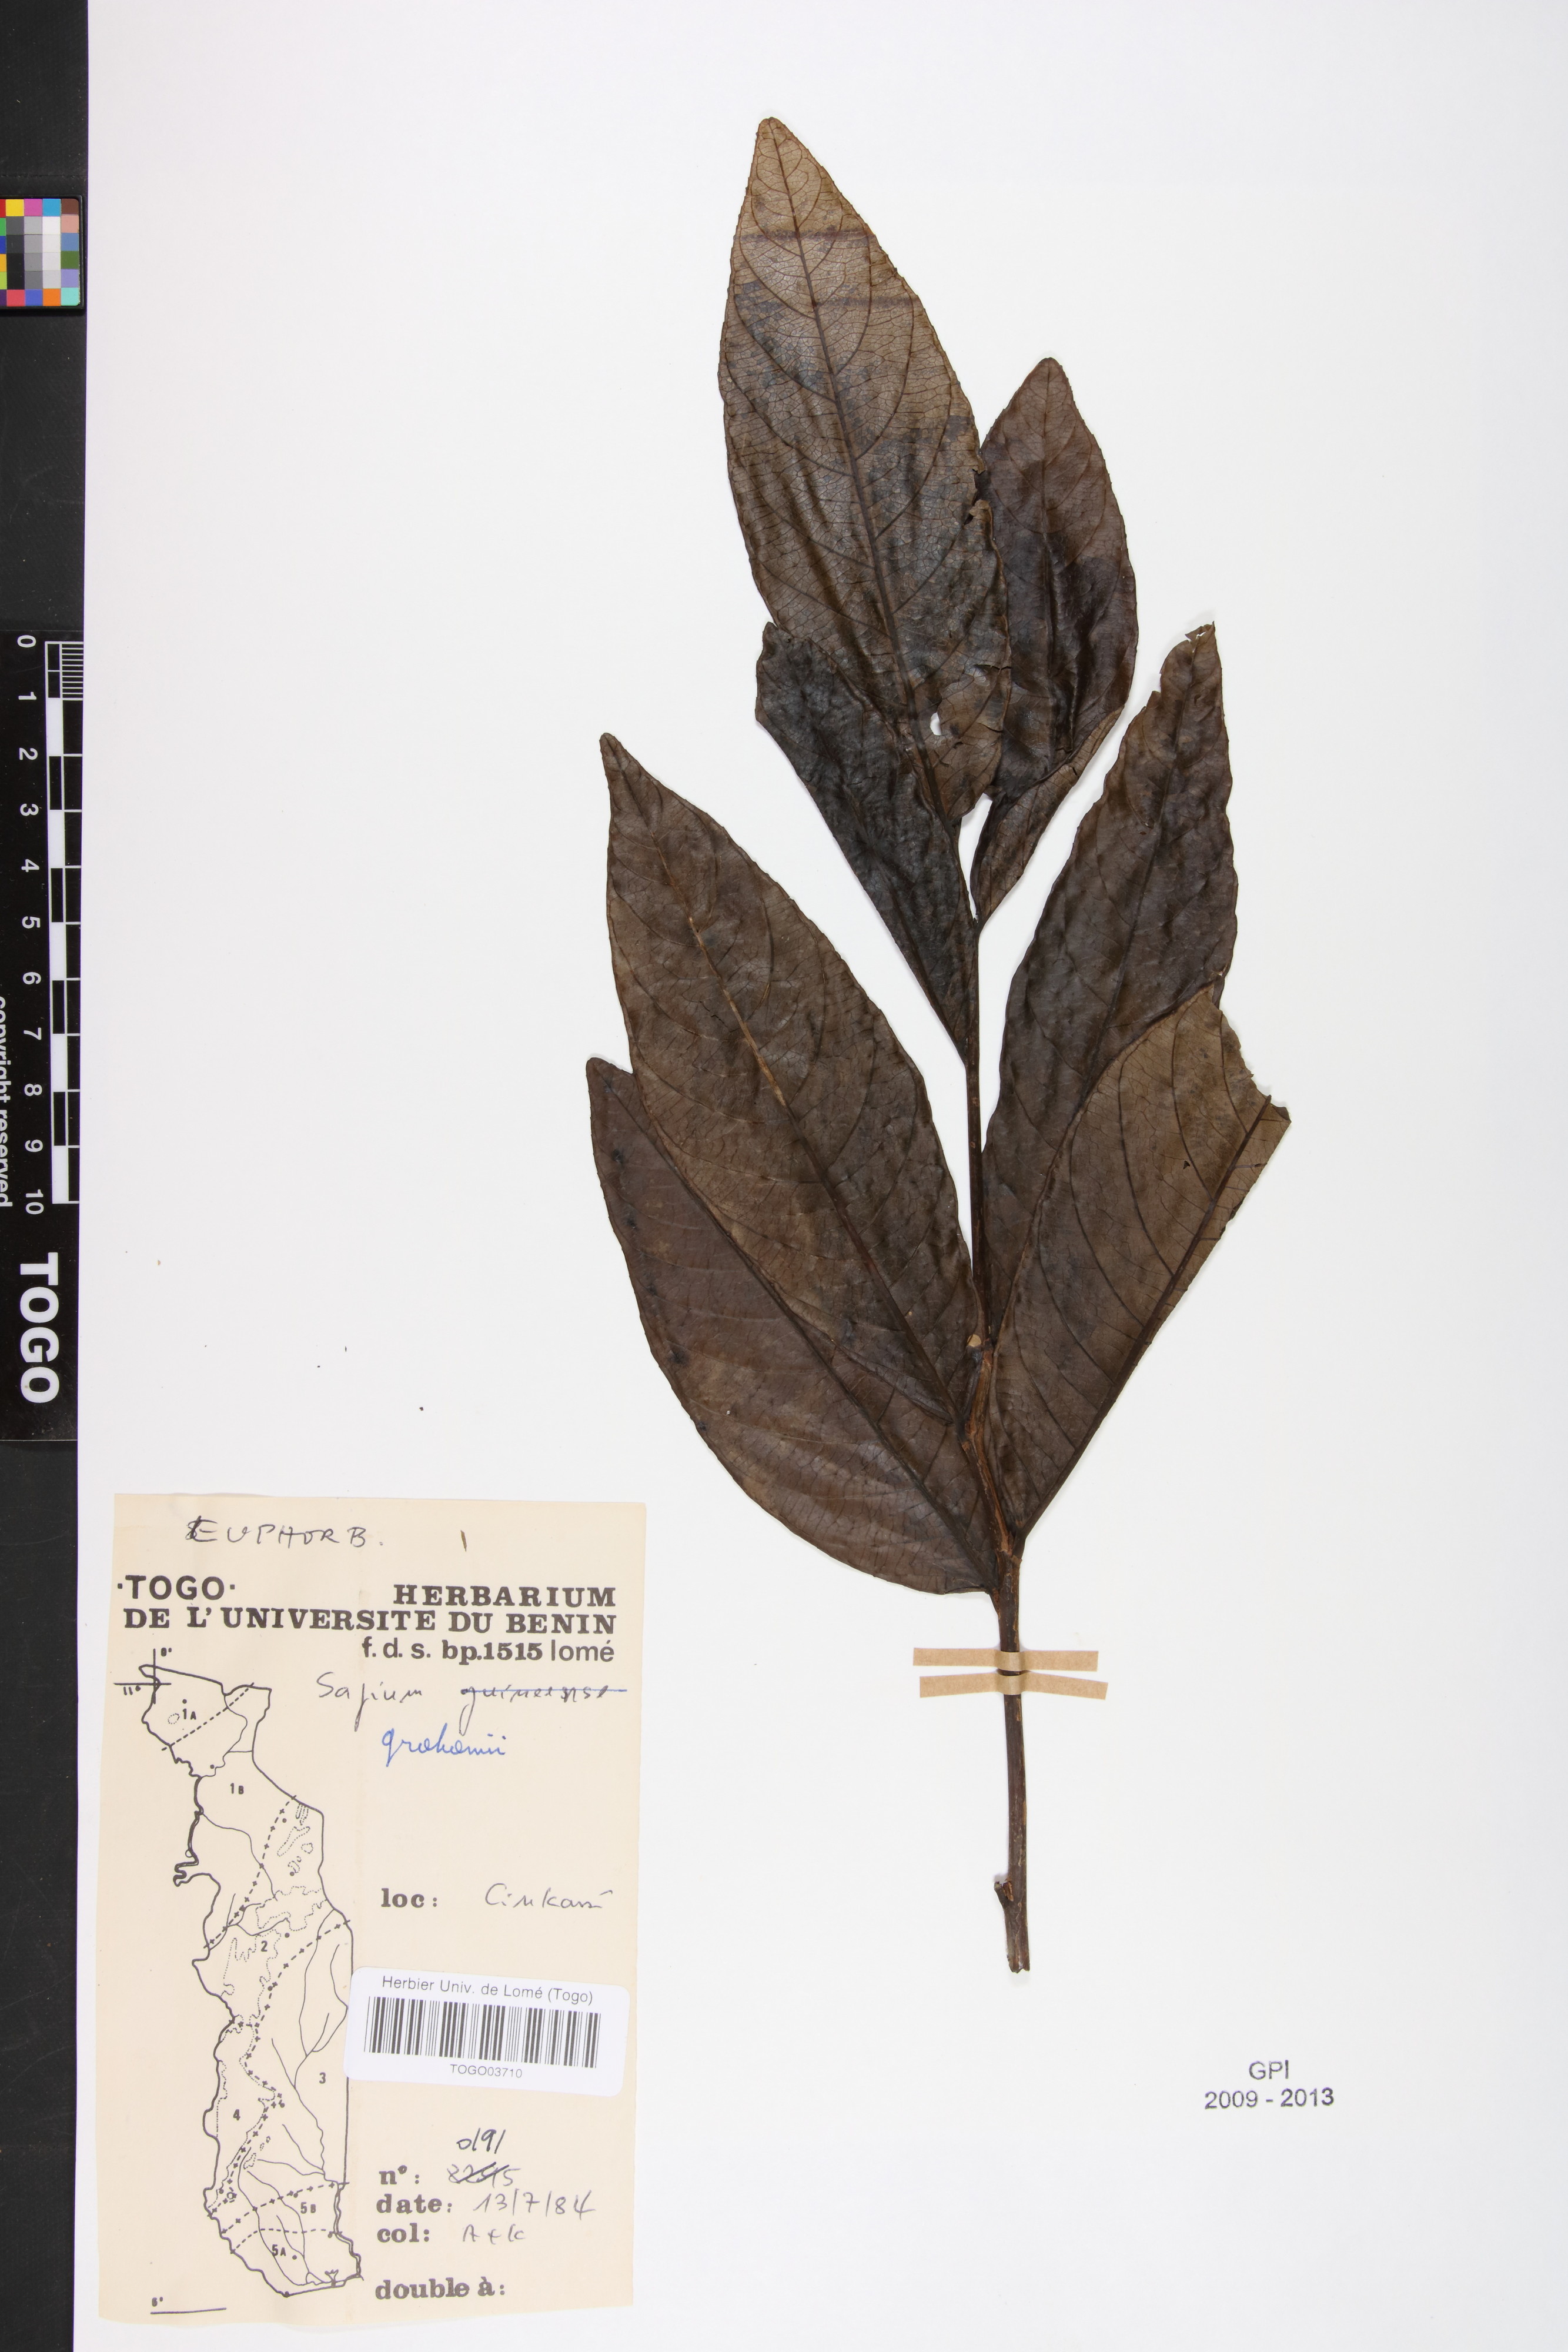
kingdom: Plantae
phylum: Tracheophyta
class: Magnoliopsida
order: Malpighiales
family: Euphorbiaceae
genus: Excoecaria
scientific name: Excoecaria grahamii
